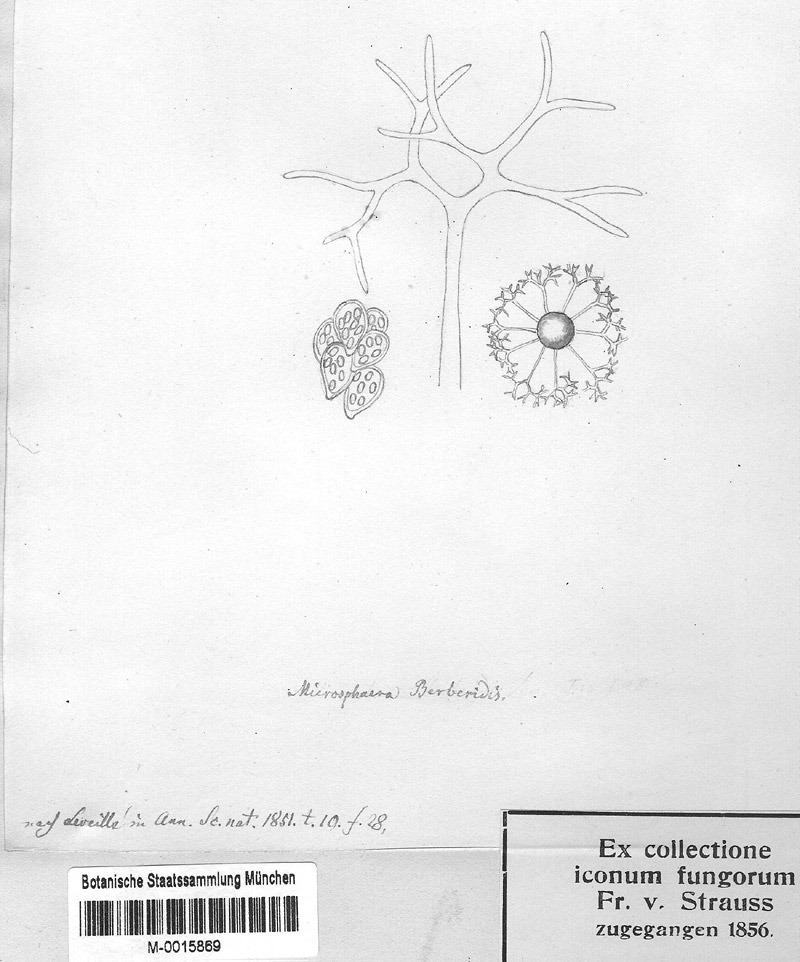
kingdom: Fungi
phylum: Ascomycota
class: Leotiomycetes
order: Helotiales
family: Erysiphaceae
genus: Erysiphe
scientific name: Erysiphe berberidis
